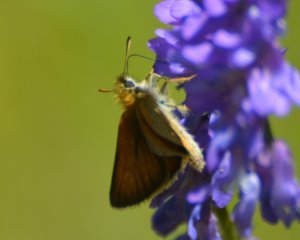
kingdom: Animalia
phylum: Arthropoda
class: Insecta
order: Lepidoptera
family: Hesperiidae
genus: Thymelicus
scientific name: Thymelicus lineola
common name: European Skipper
